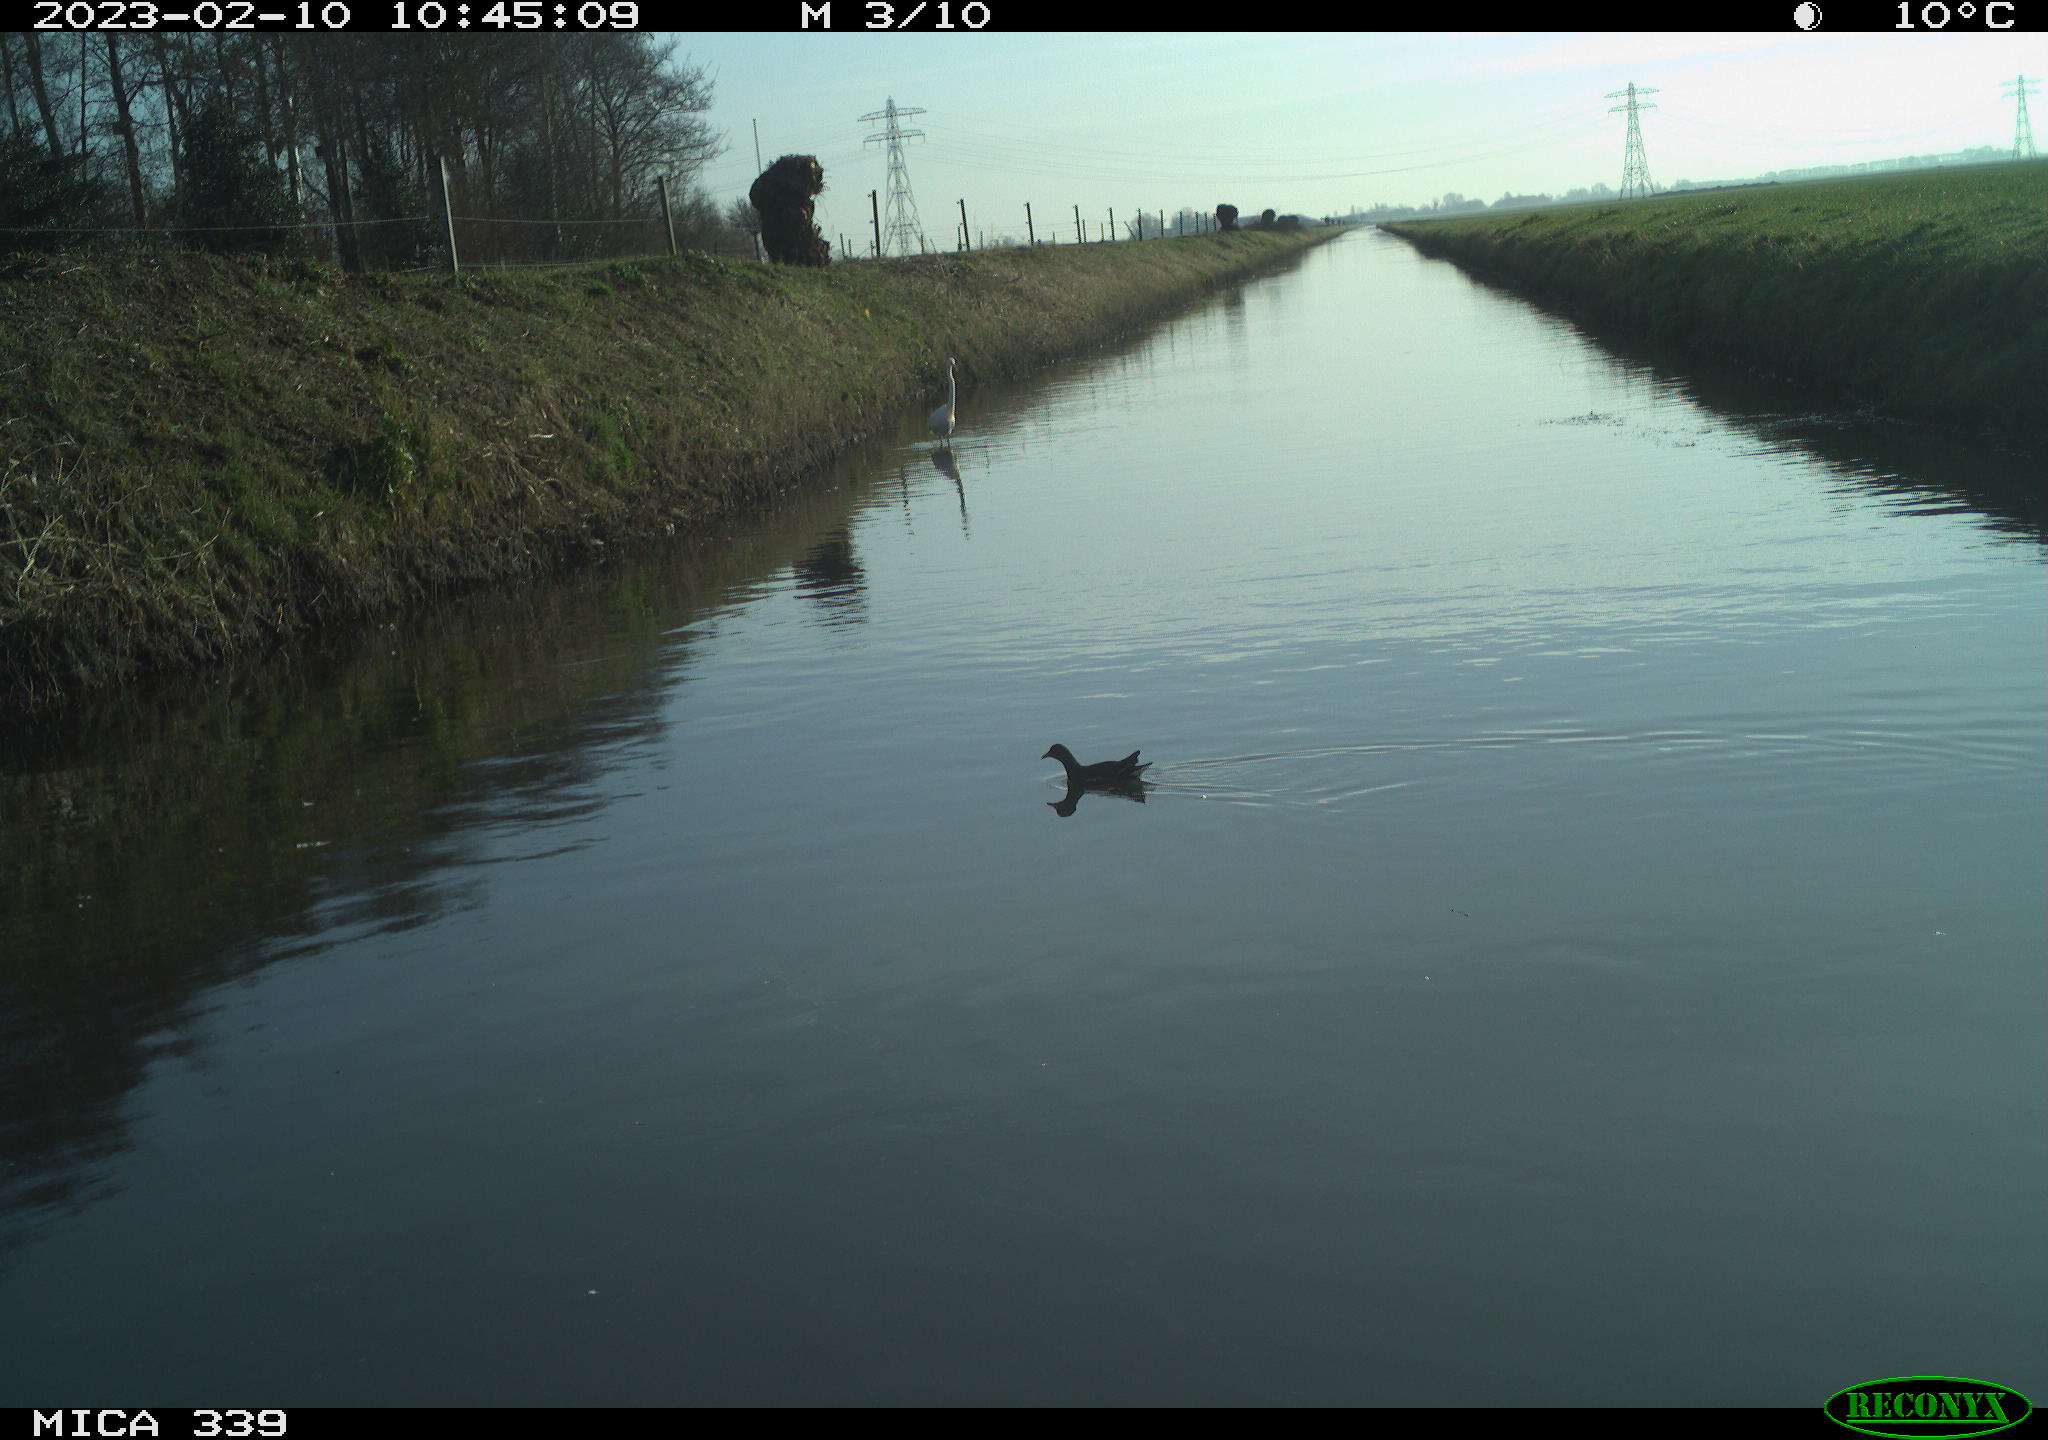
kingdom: Animalia
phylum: Chordata
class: Aves
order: Pelecaniformes
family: Ardeidae
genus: Ardea
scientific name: Ardea alba
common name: Great egret
